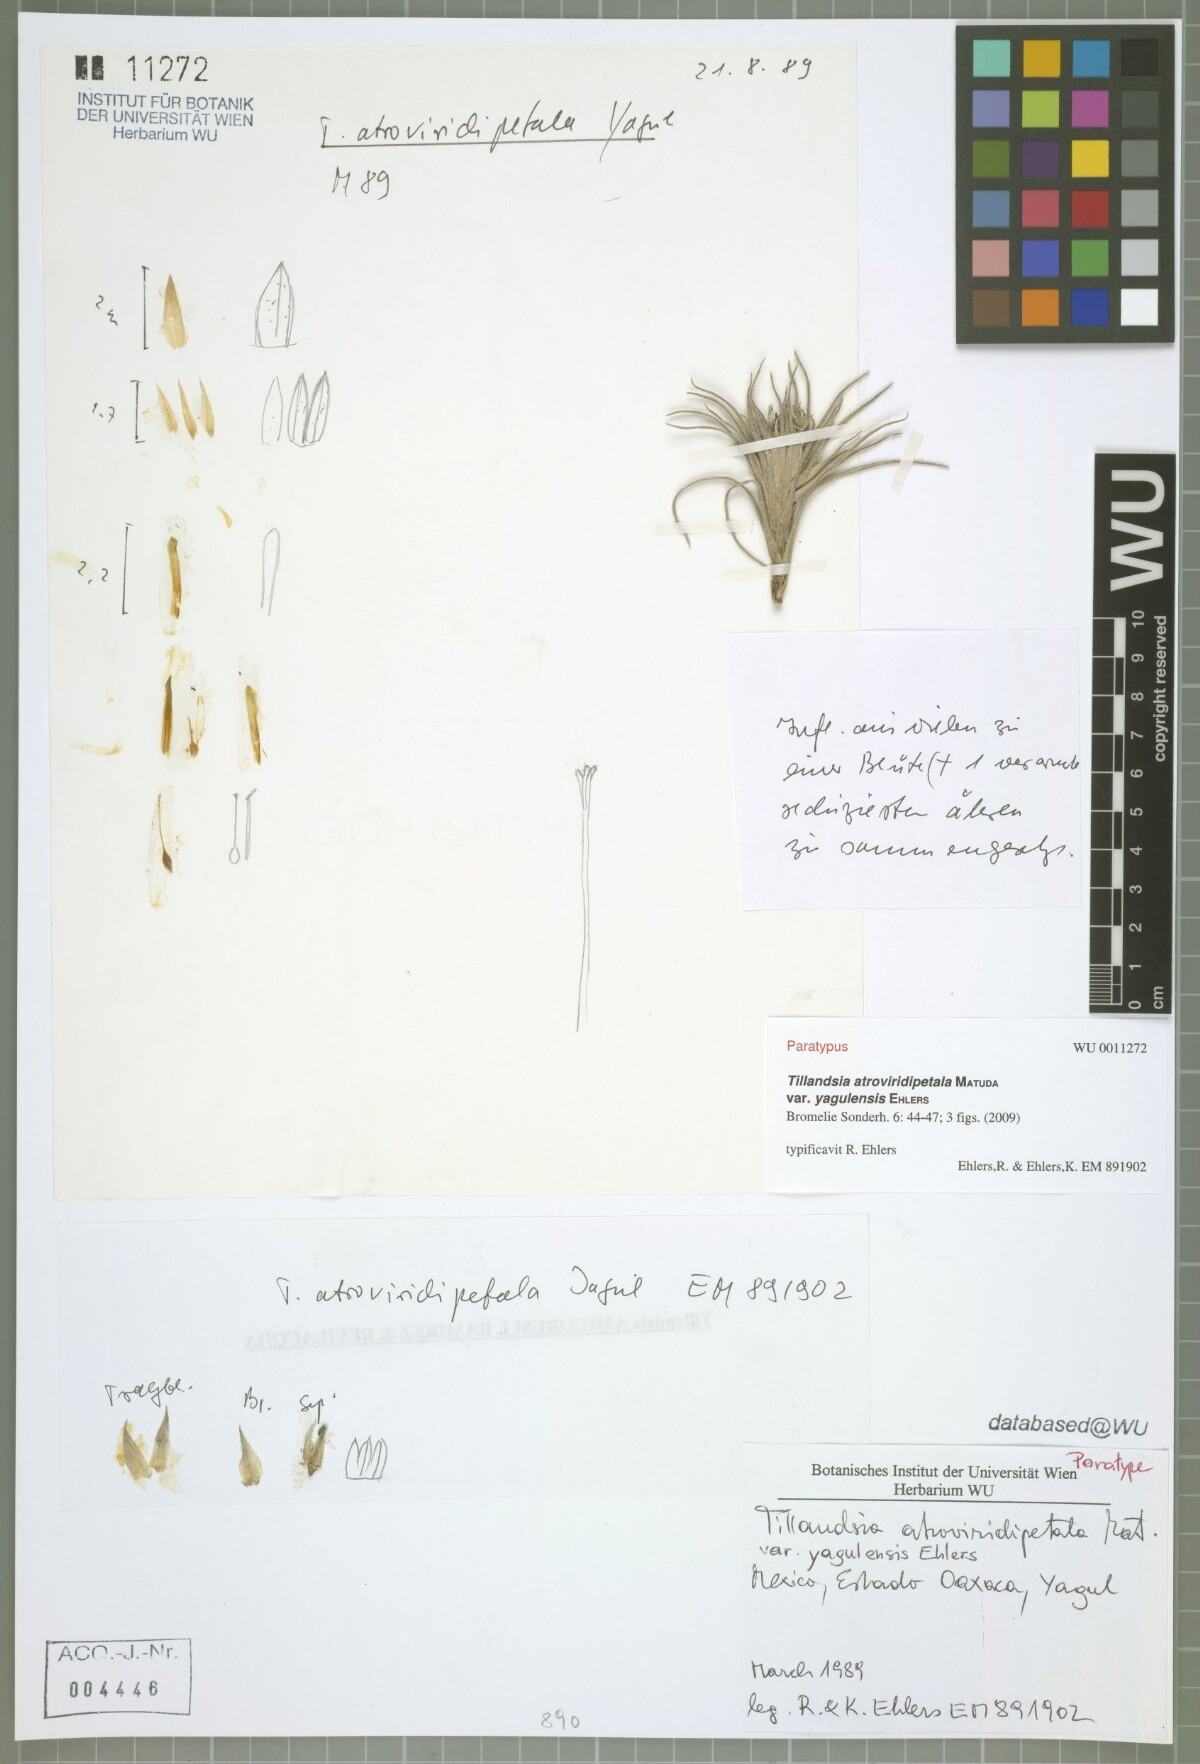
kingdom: Plantae
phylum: Tracheophyta
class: Liliopsida
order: Poales
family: Bromeliaceae
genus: Tillandsia
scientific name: Tillandsia atroviridipetala
